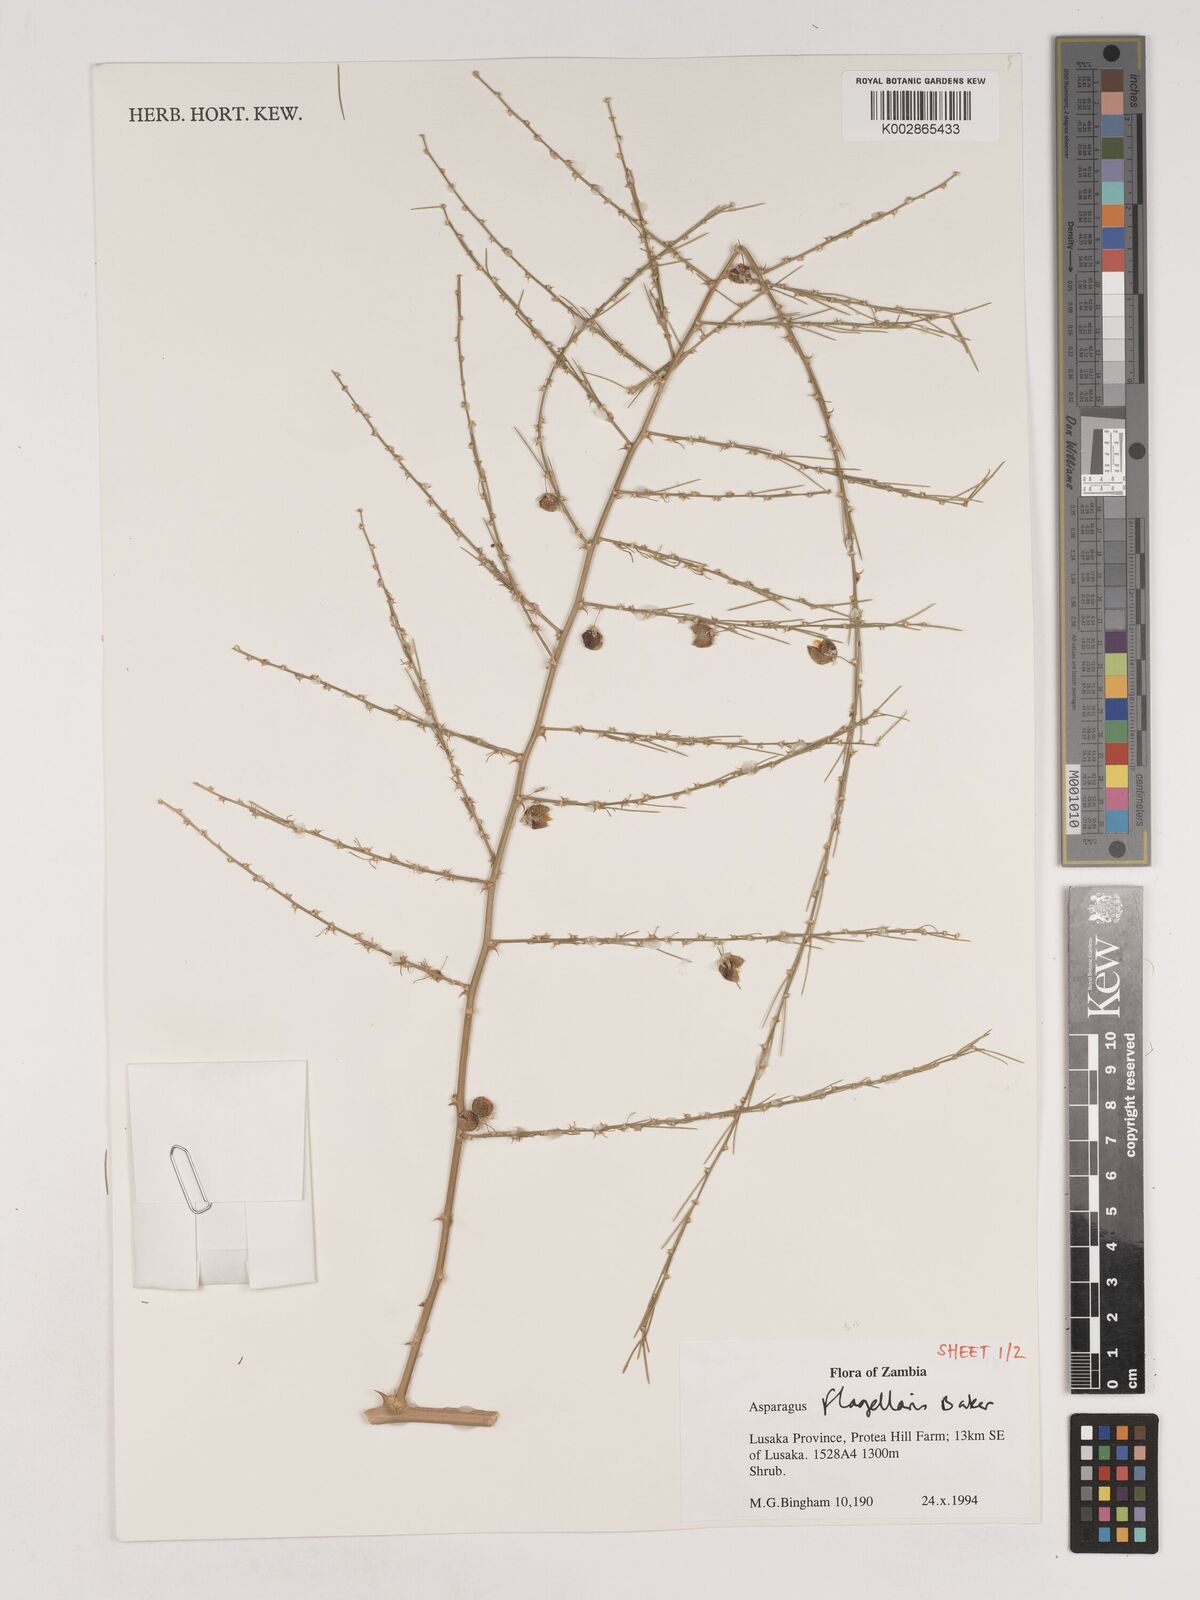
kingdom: Plantae
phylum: Tracheophyta
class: Liliopsida
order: Asparagales
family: Asparagaceae
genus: Asparagus
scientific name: Asparagus flagellaris
